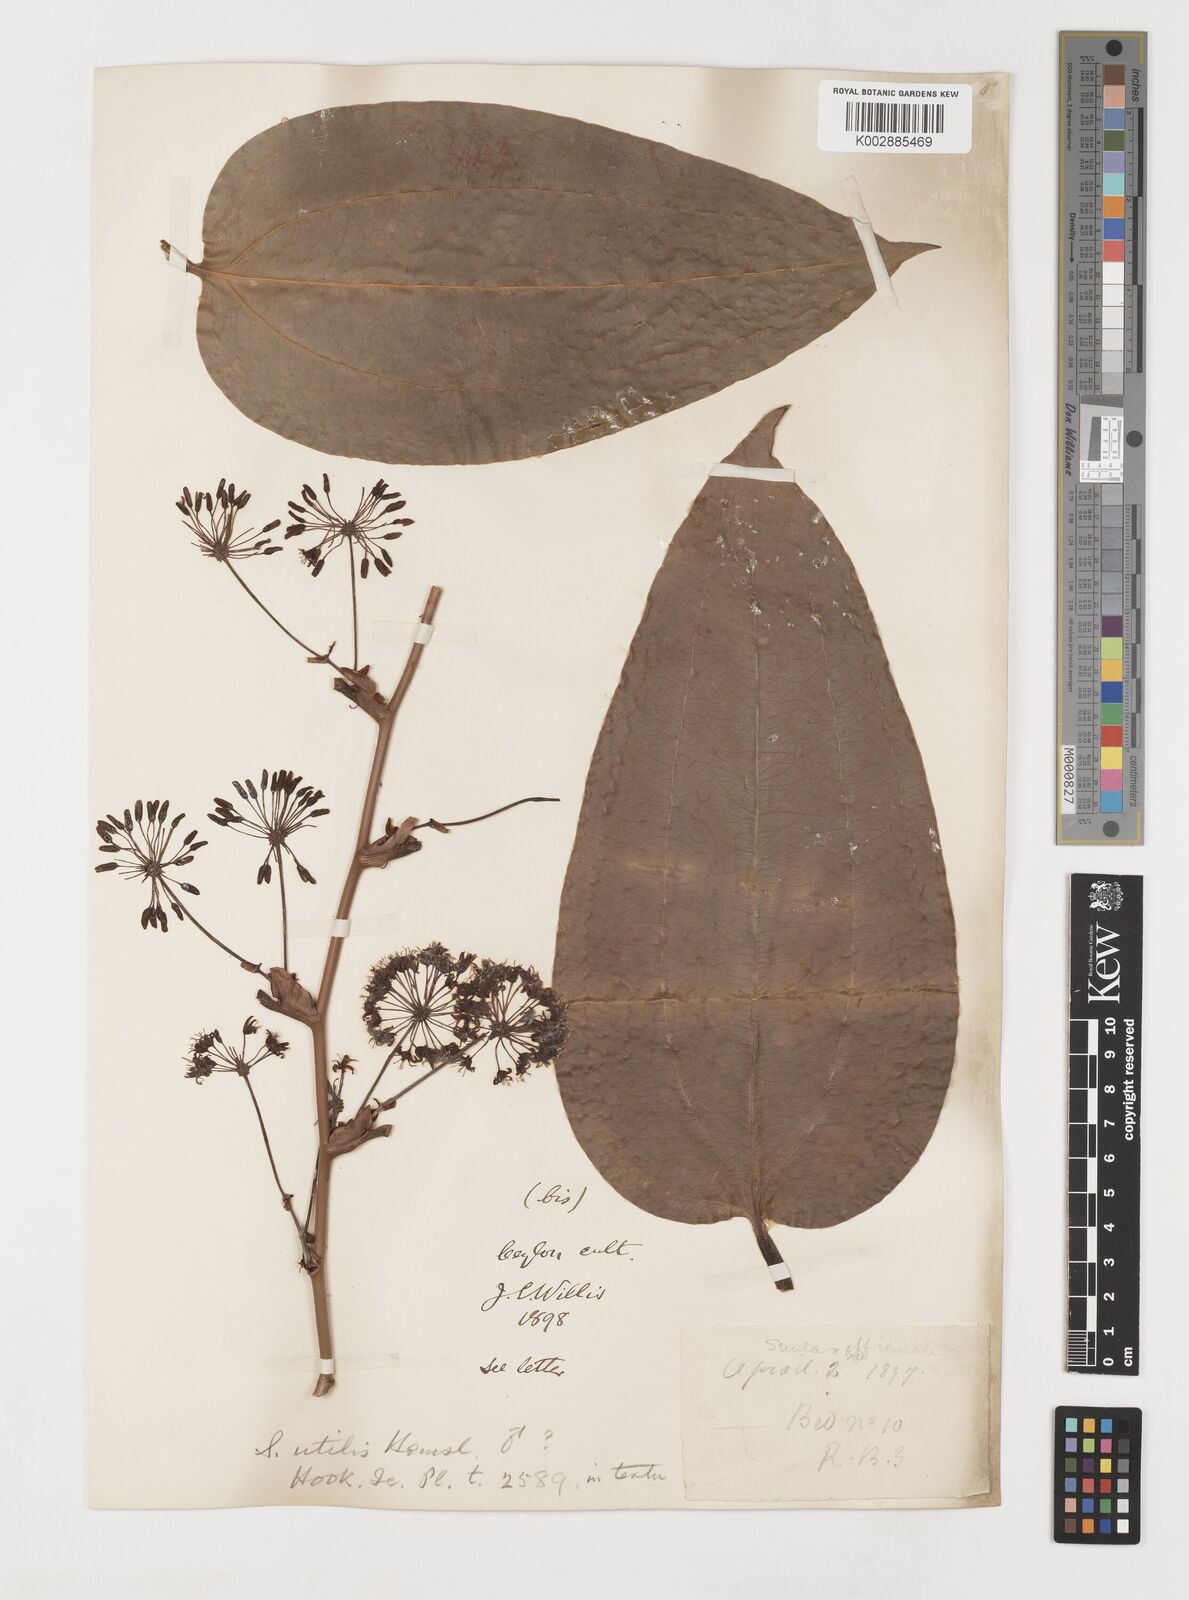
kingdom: Plantae
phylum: Tracheophyta
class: Liliopsida
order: Liliales
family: Smilacaceae
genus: Smilax
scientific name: Smilax ornata
